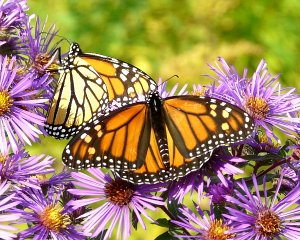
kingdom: Animalia
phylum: Arthropoda
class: Insecta
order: Lepidoptera
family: Nymphalidae
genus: Danaus
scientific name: Danaus plexippus
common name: Monarch
